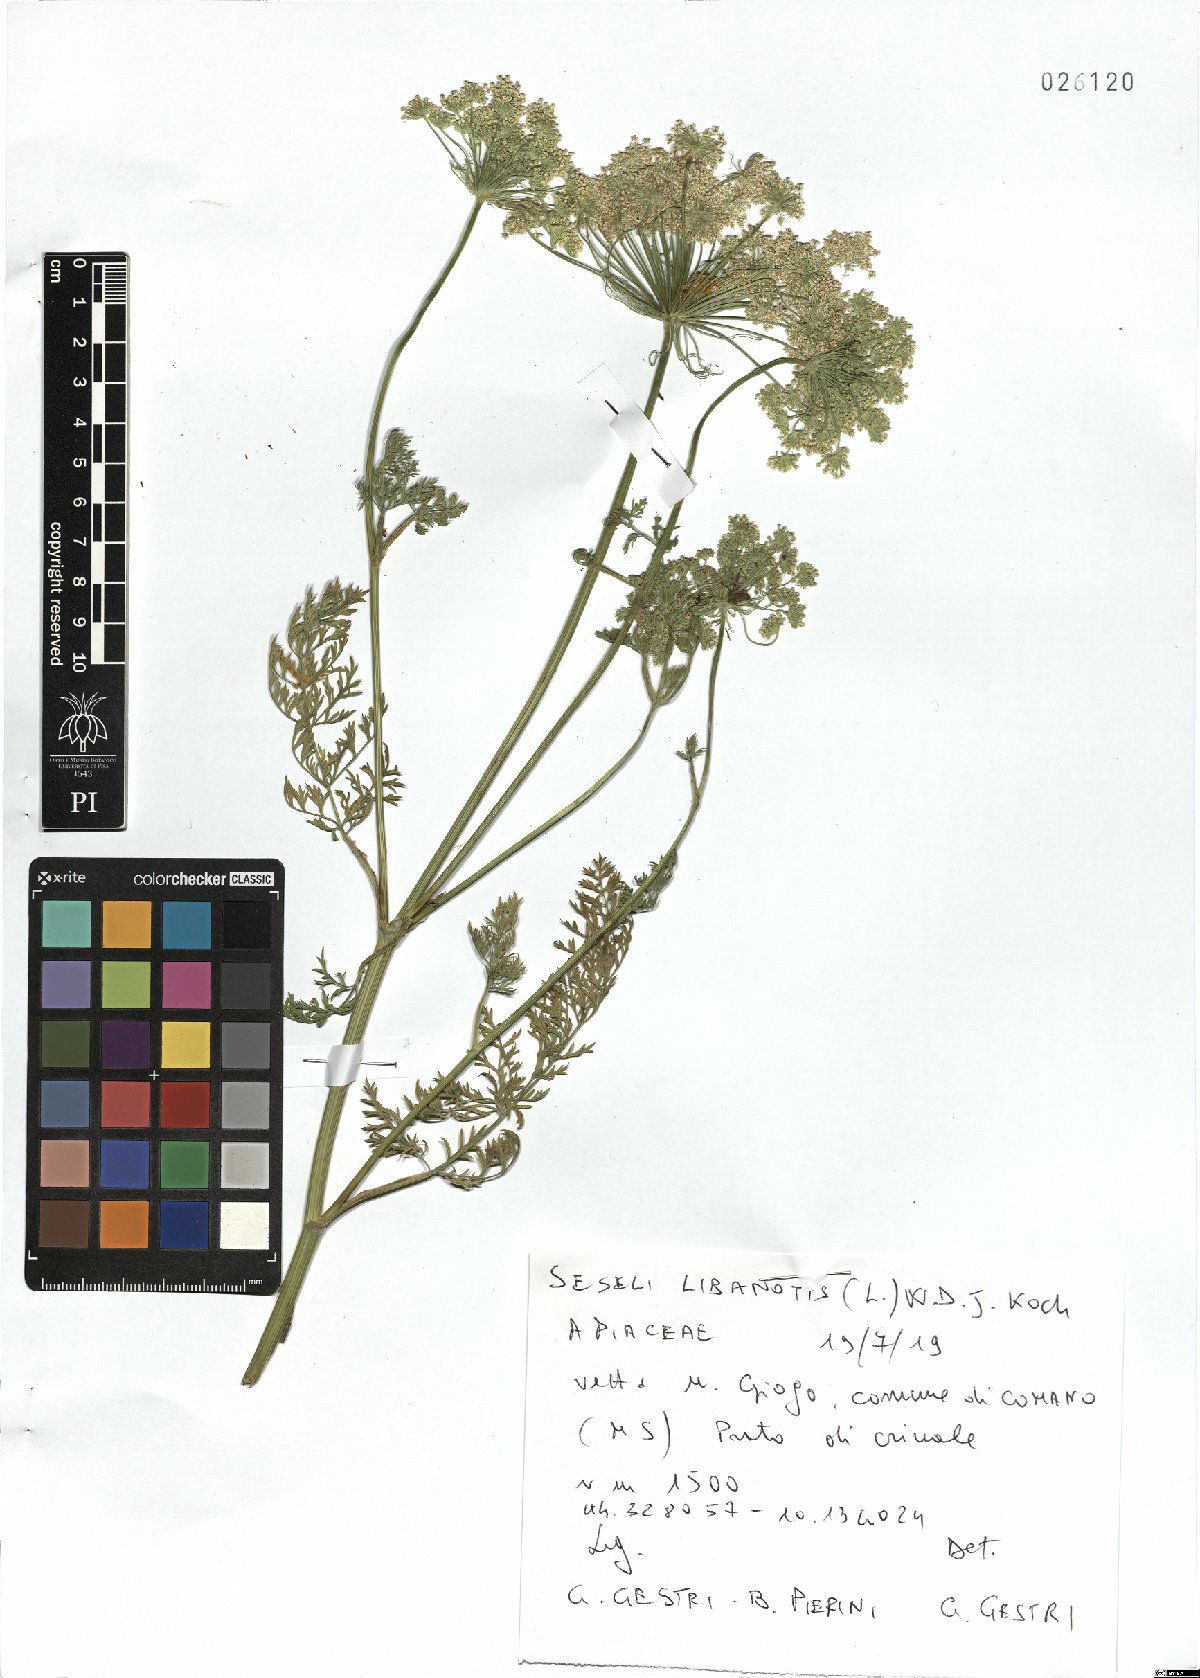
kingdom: Plantae
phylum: Tracheophyta
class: Magnoliopsida
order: Apiales
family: Apiaceae
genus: Seseli
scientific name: Seseli libanotis
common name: Mooncarrot
